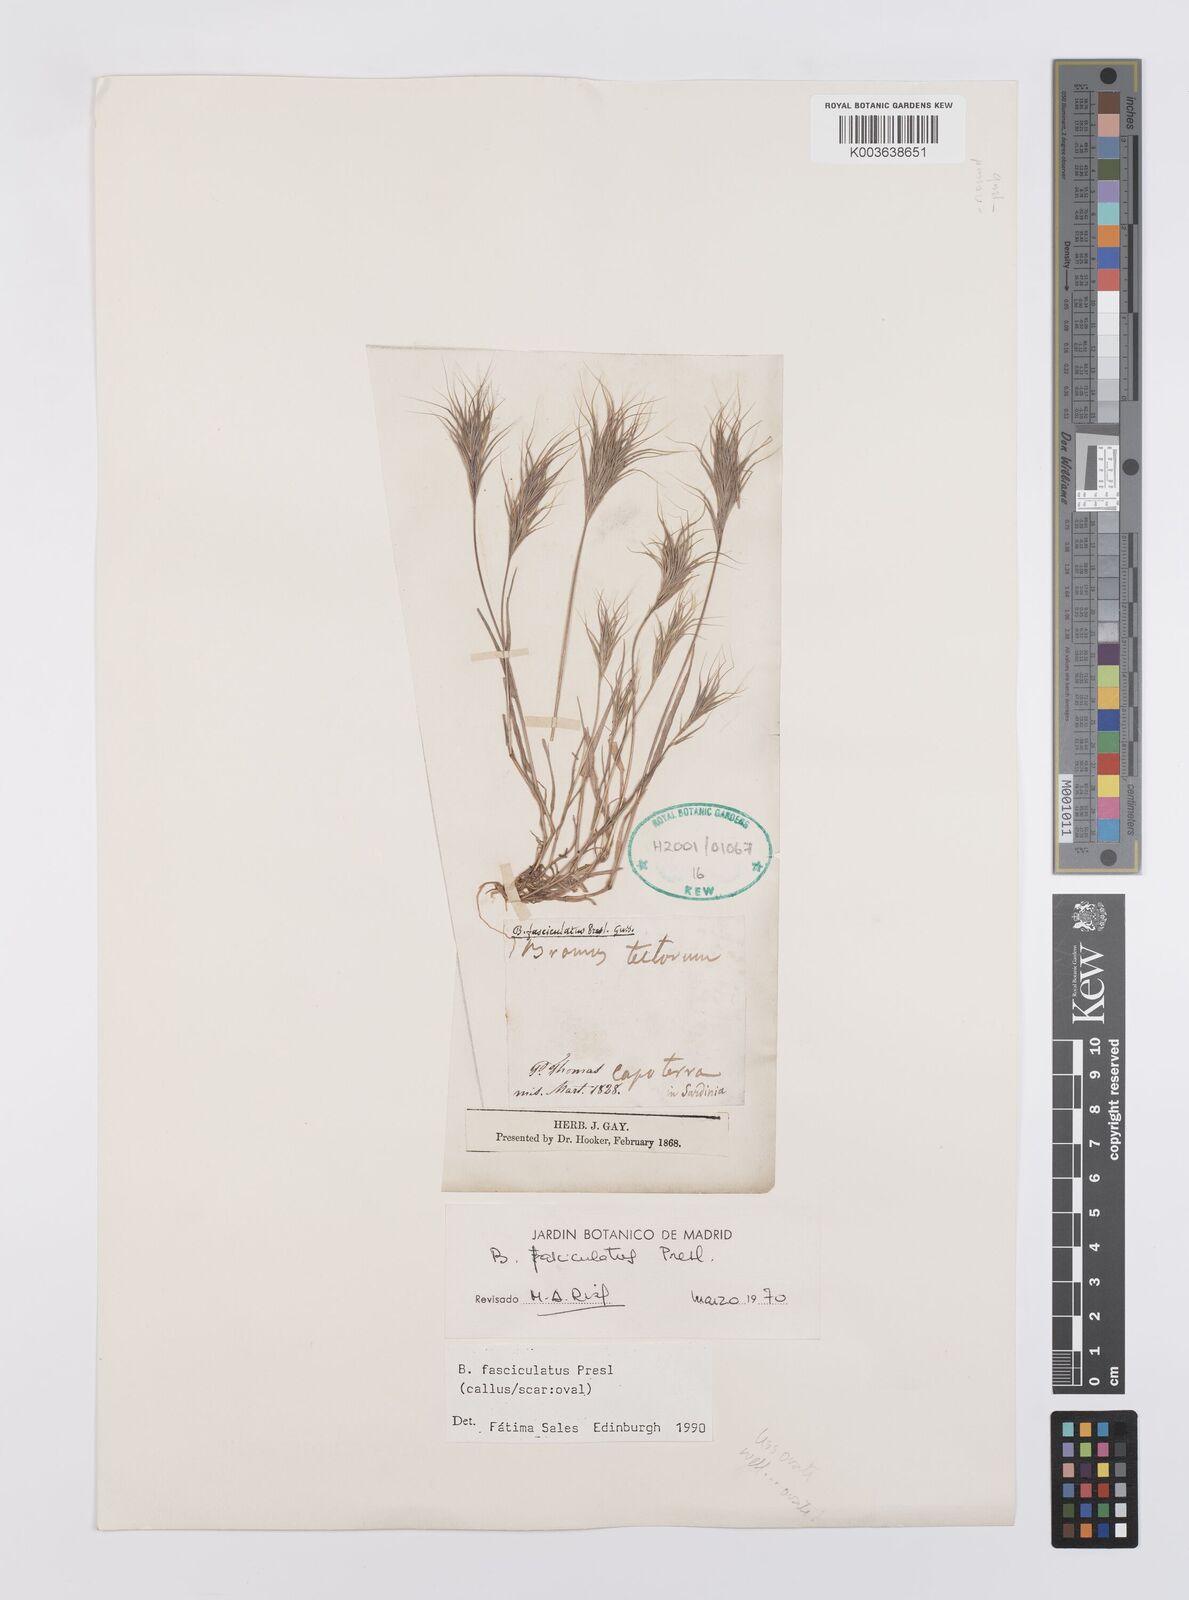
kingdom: Plantae
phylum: Tracheophyta
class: Liliopsida
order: Poales
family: Poaceae
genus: Bromus
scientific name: Bromus fasciculatus
